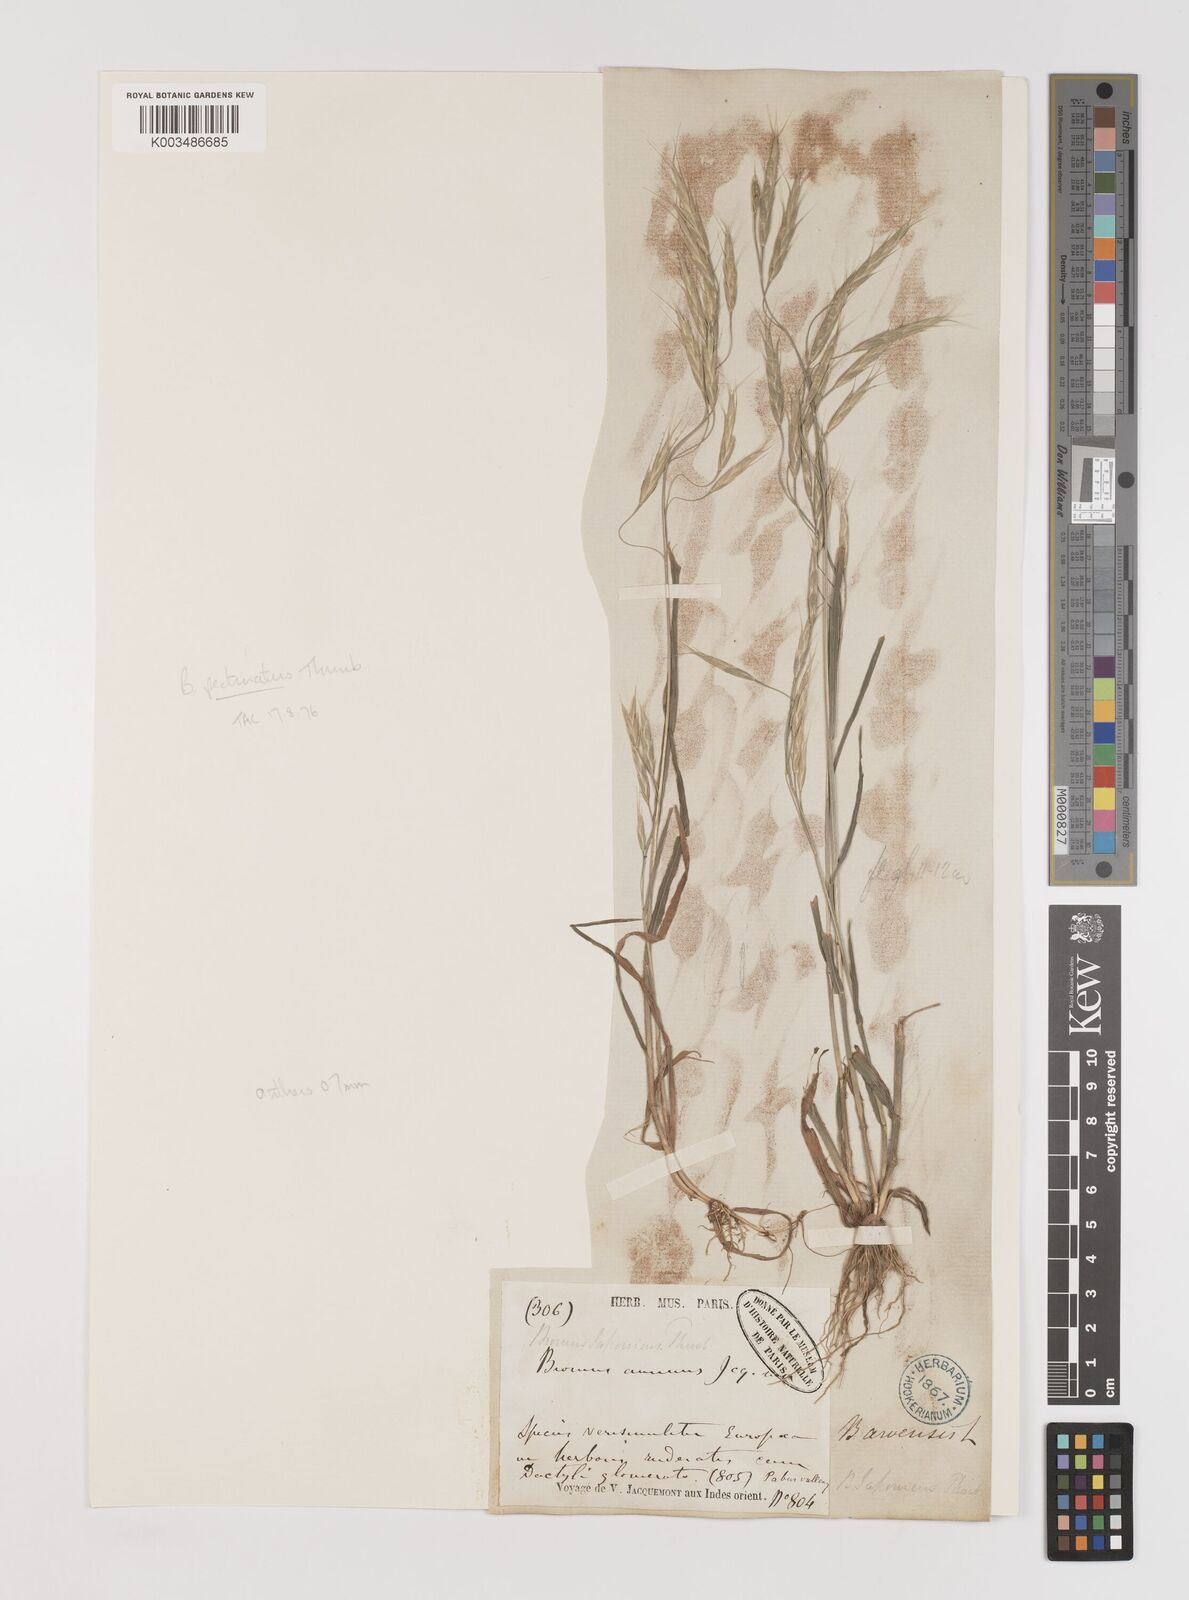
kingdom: Plantae
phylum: Tracheophyta
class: Liliopsida
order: Poales
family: Poaceae
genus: Bromus
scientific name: Bromus pectinatus
